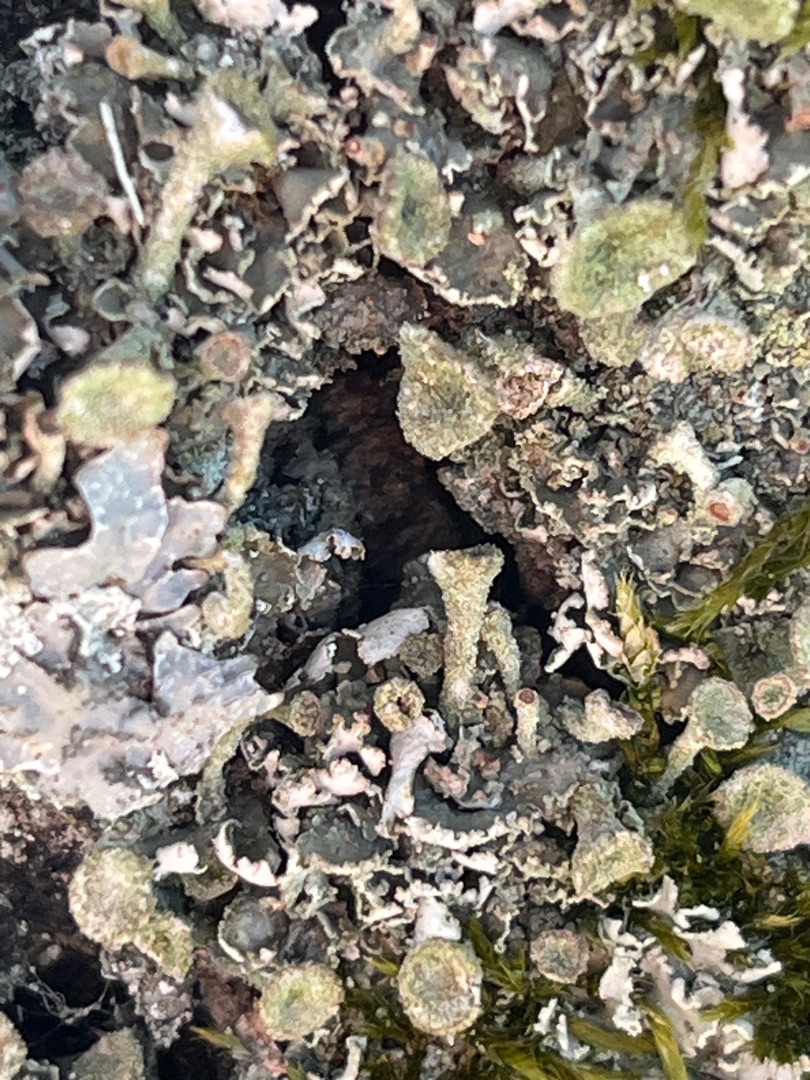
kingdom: Fungi
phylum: Ascomycota
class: Lecanoromycetes
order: Lecanorales
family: Cladoniaceae
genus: Cladonia
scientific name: Cladonia chlorophaea
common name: Brungrøn bægerlav
